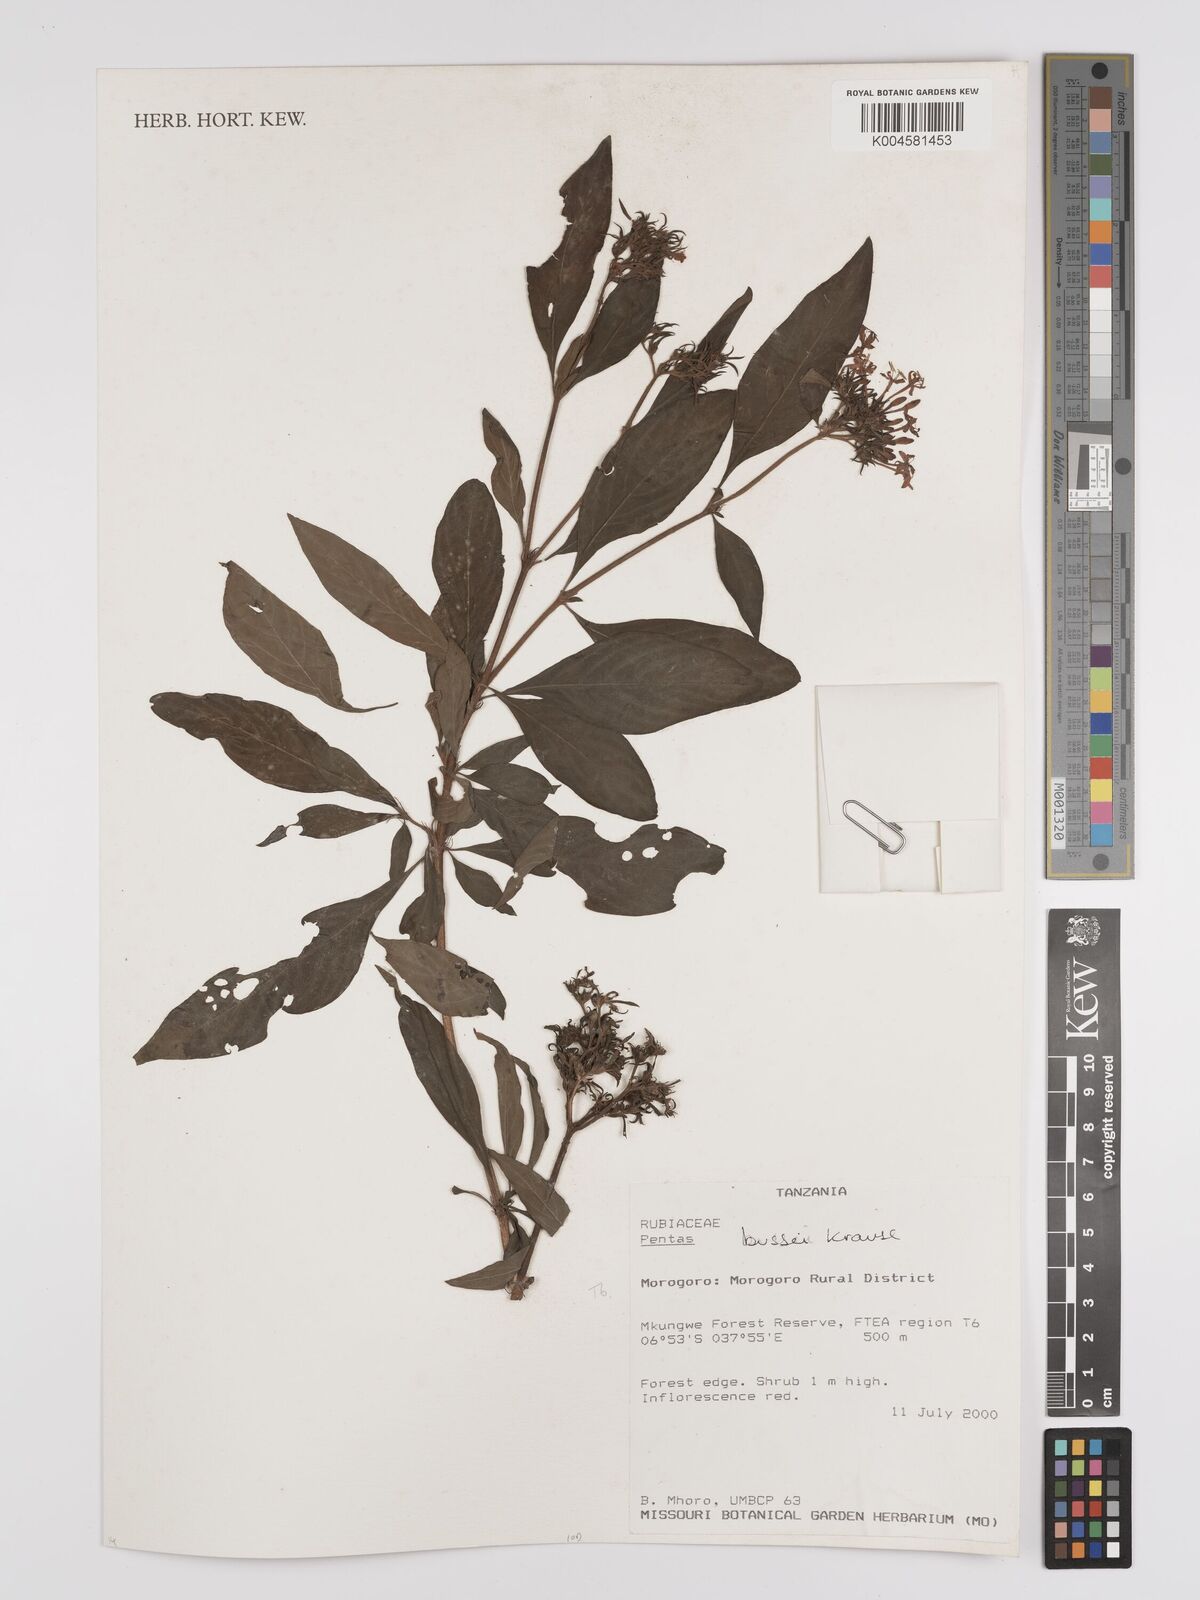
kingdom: Plantae
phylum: Tracheophyta
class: Magnoliopsida
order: Gentianales
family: Rubiaceae
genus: Rhodopentas
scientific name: Rhodopentas bussei
